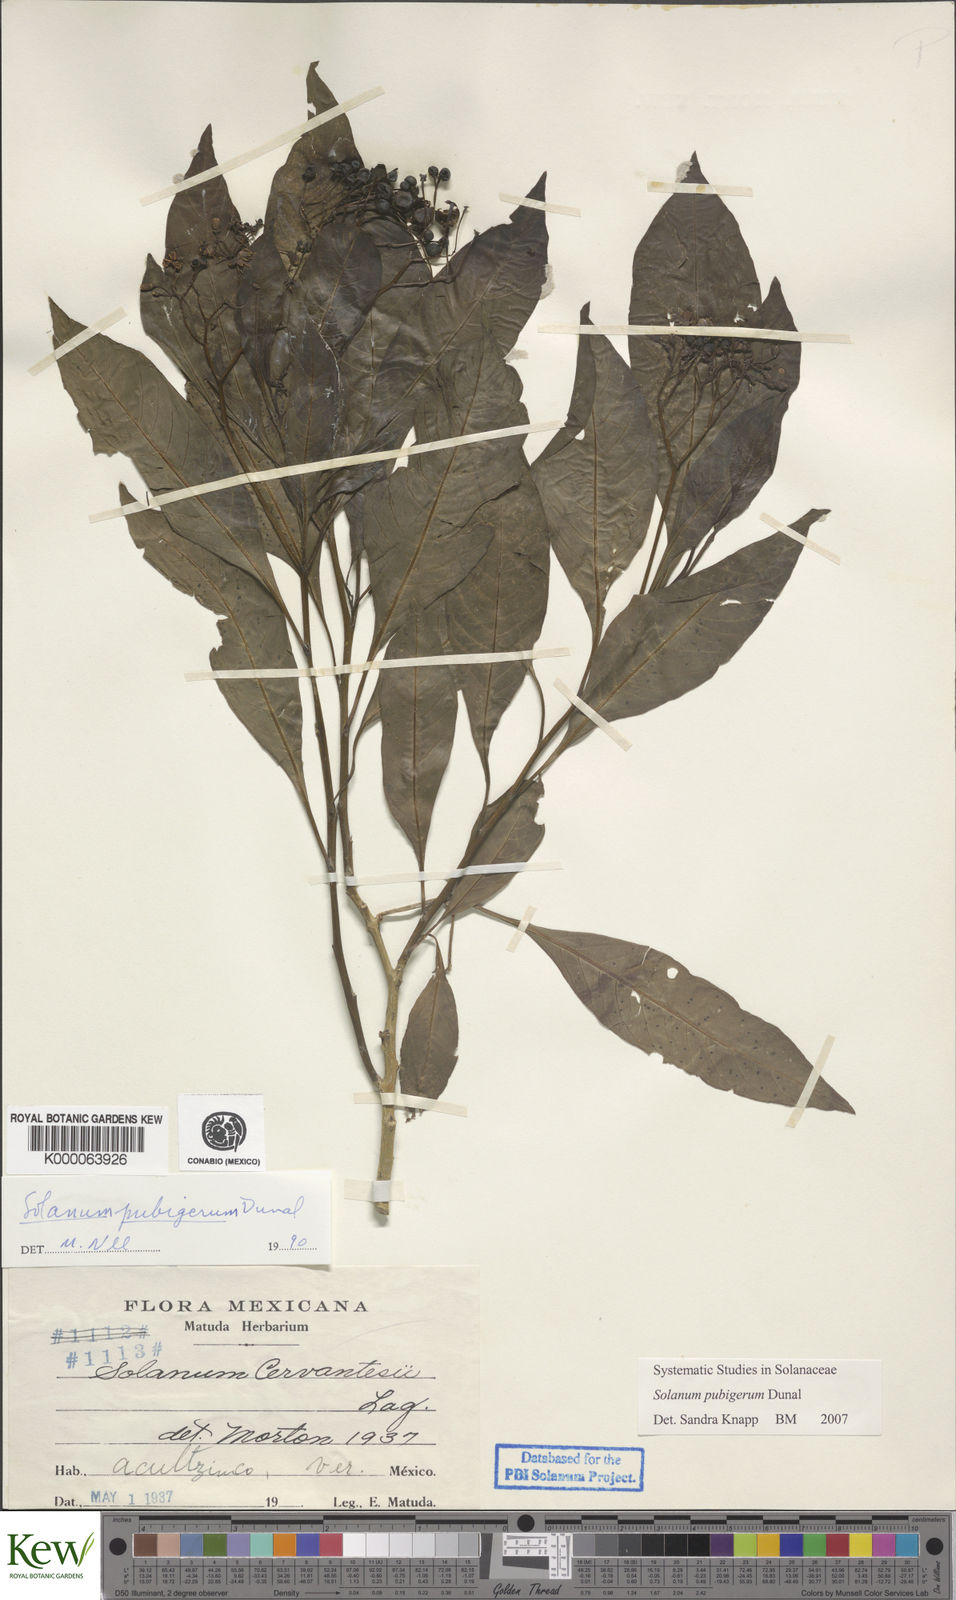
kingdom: Plantae
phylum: Tracheophyta
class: Magnoliopsida
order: Solanales
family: Solanaceae
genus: Solanum
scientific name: Solanum pubigerum
